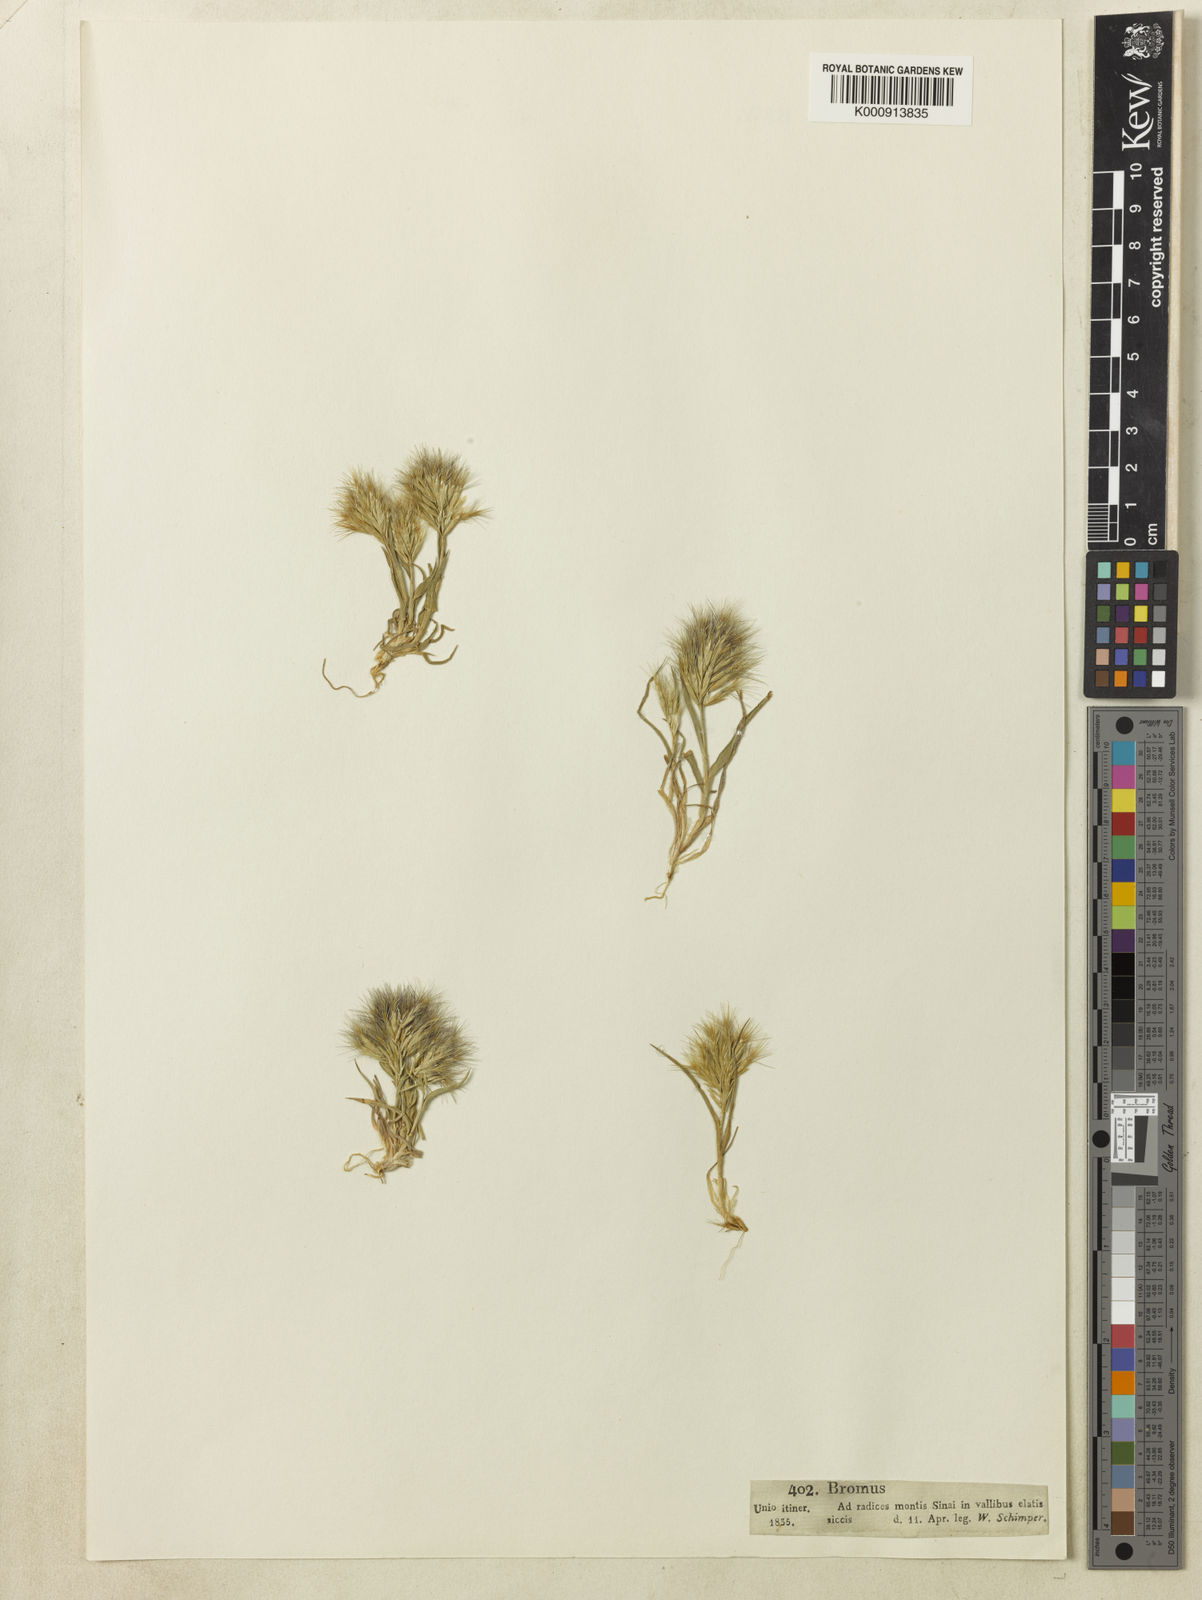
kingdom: Plantae
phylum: Tracheophyta
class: Liliopsida
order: Poales
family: Poaceae
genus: Bromus
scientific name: Bromus pumilio
